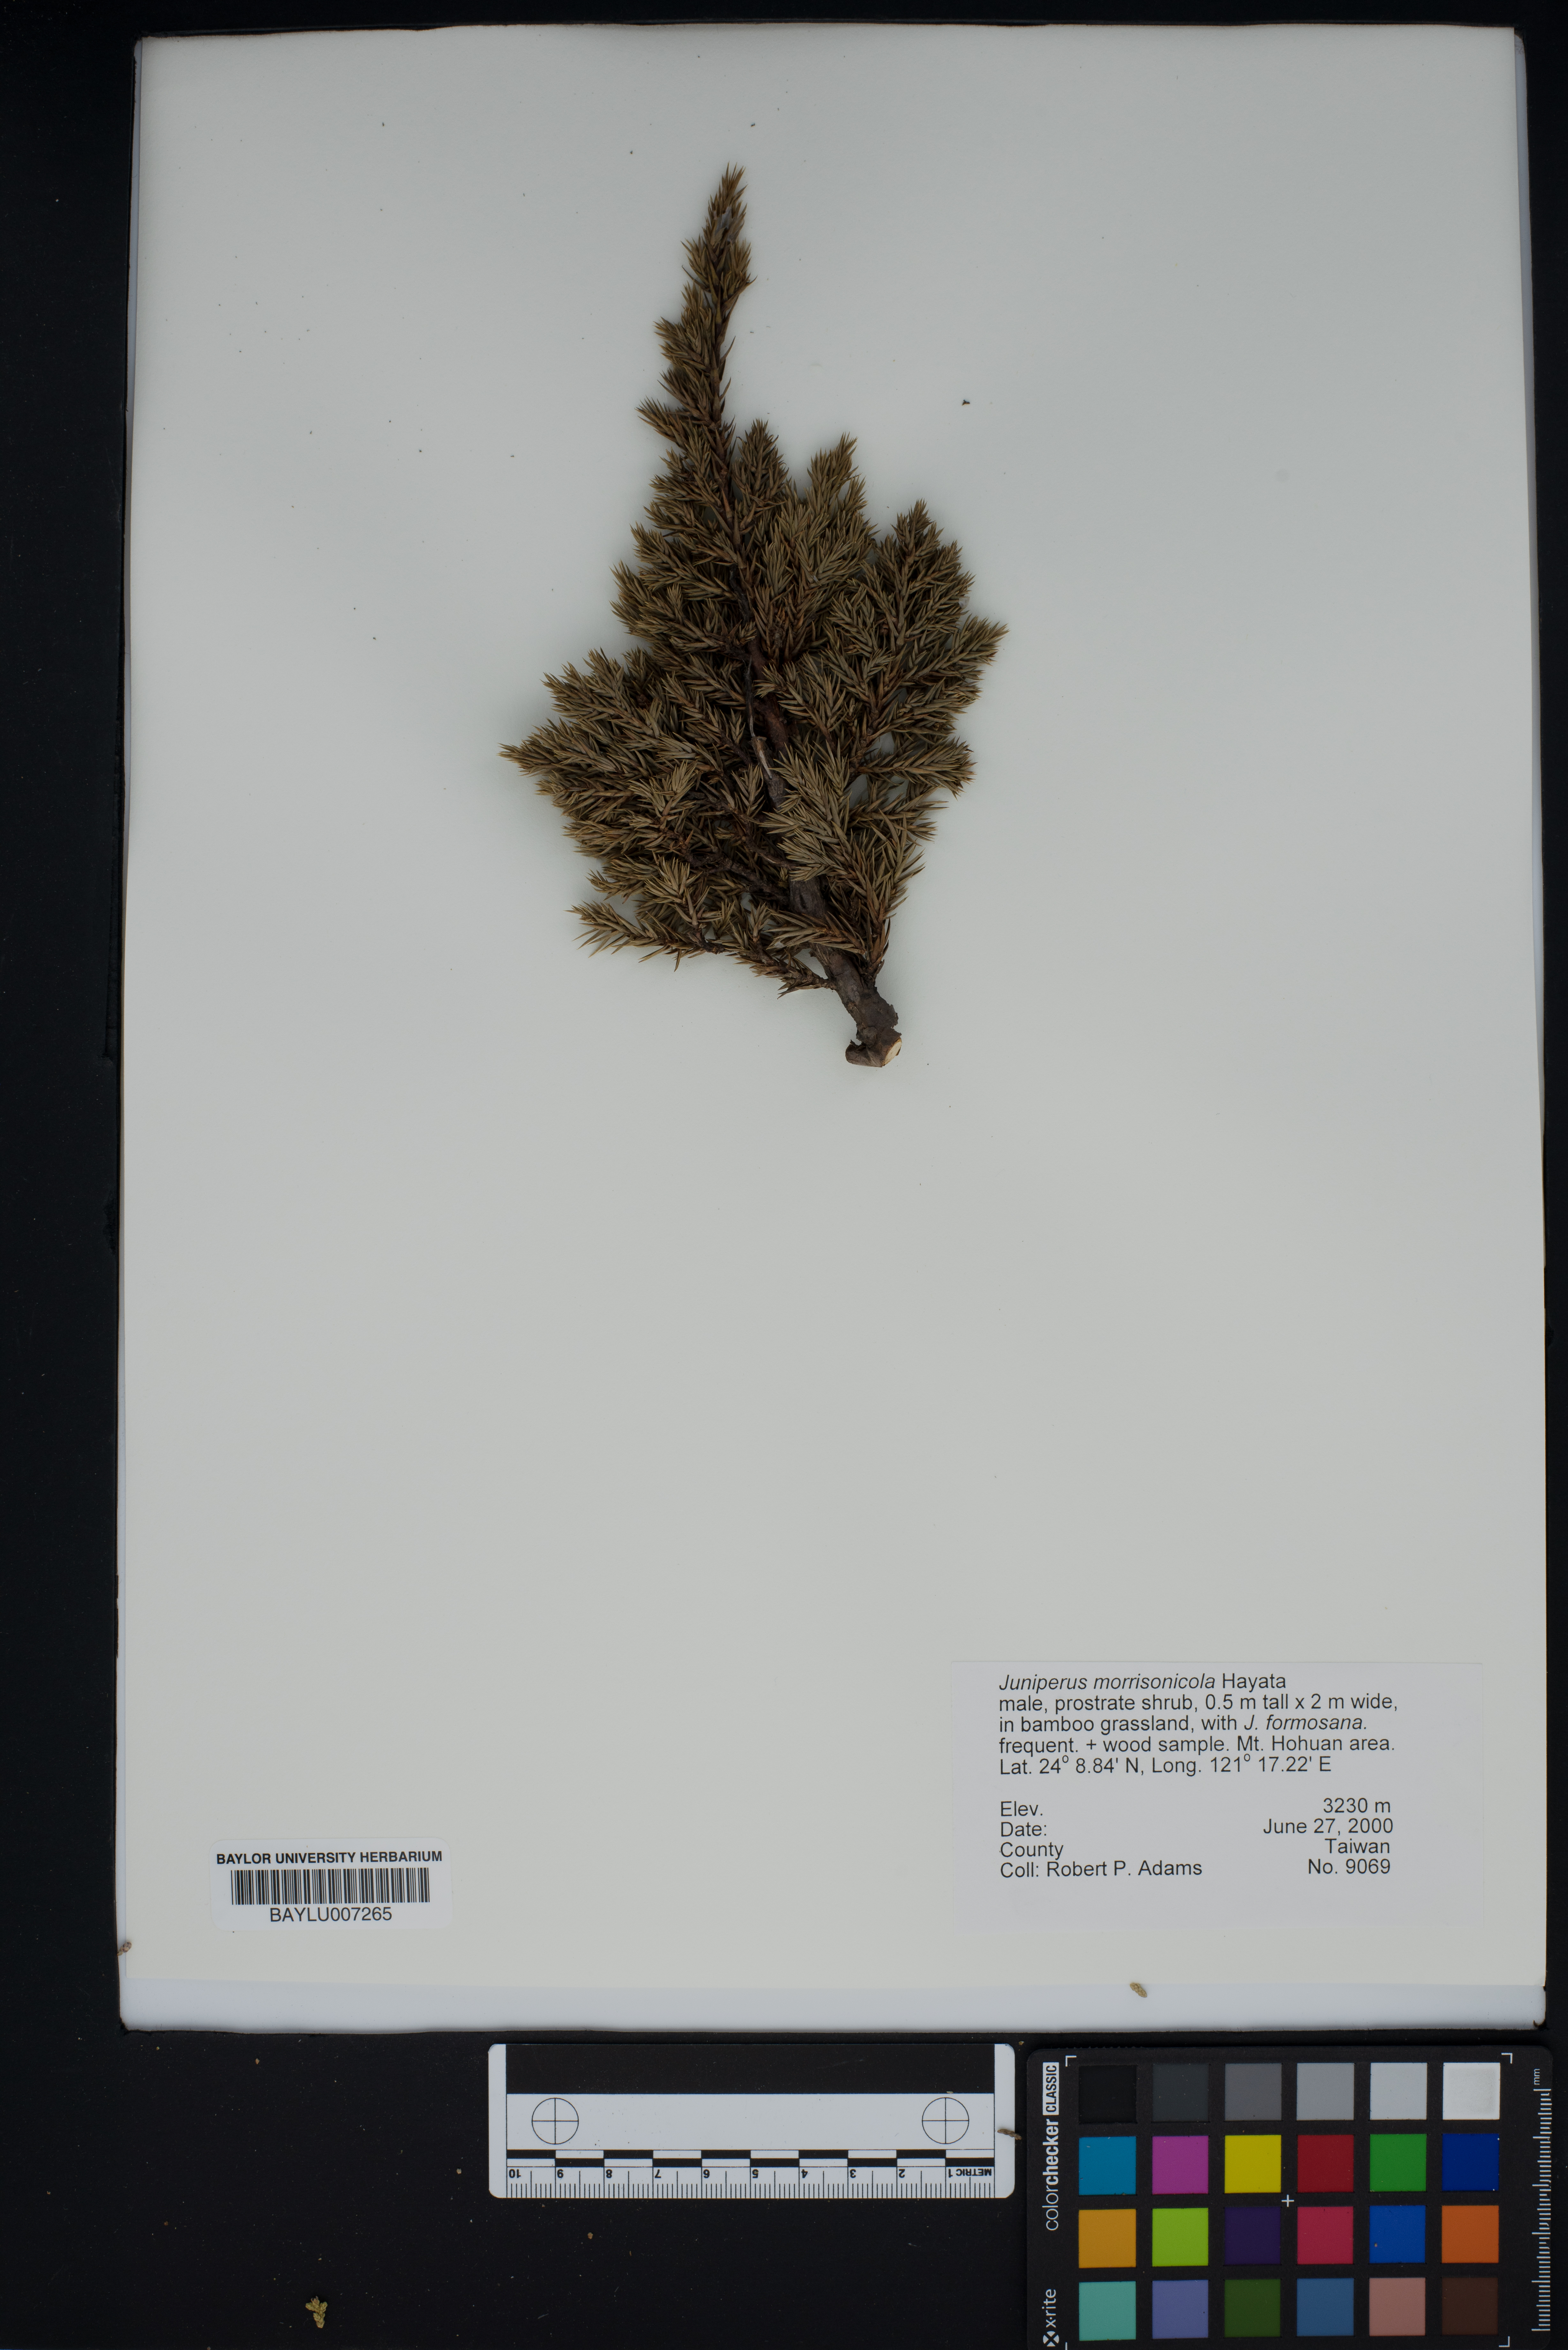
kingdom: Plantae
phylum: Tracheophyta
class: Pinopsida
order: Pinales
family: Cupressaceae
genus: Juniperus
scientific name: Juniperus squamata
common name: Flaky juniper
